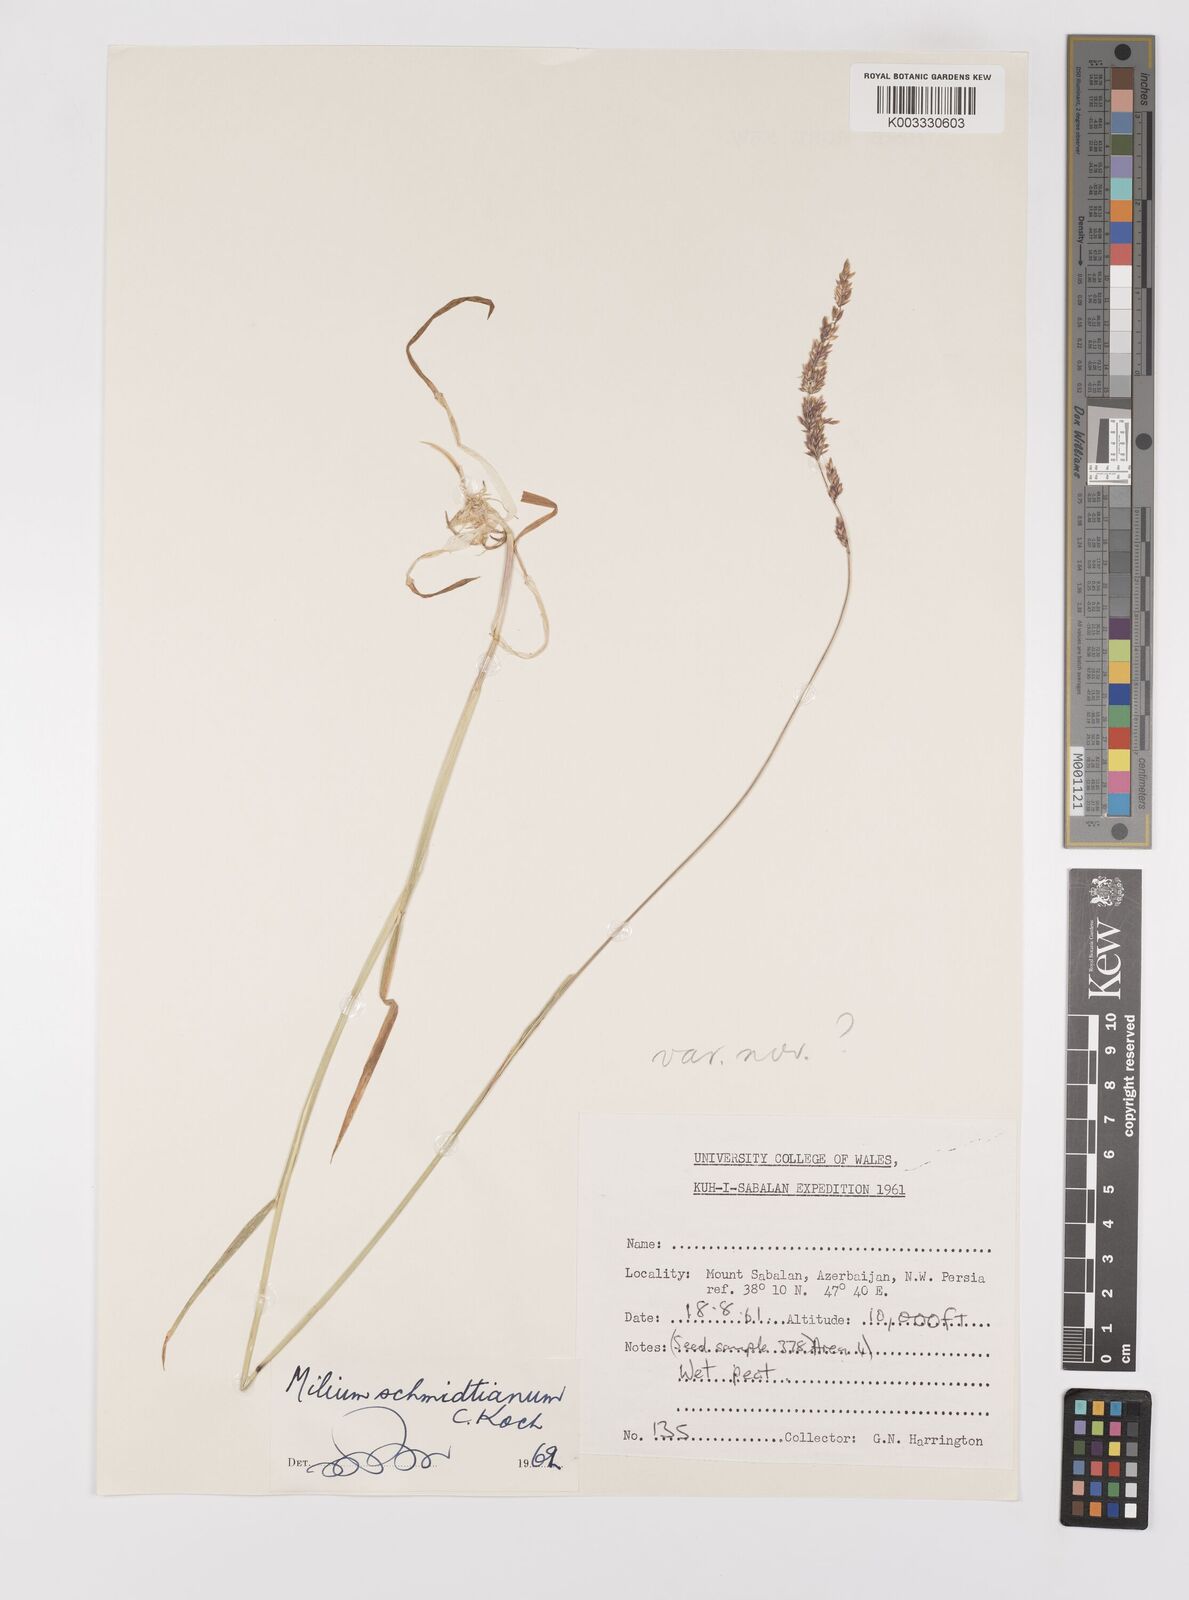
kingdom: Plantae
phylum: Tracheophyta
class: Liliopsida
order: Poales
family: Poaceae
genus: Milium
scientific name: Milium schmidtianum
